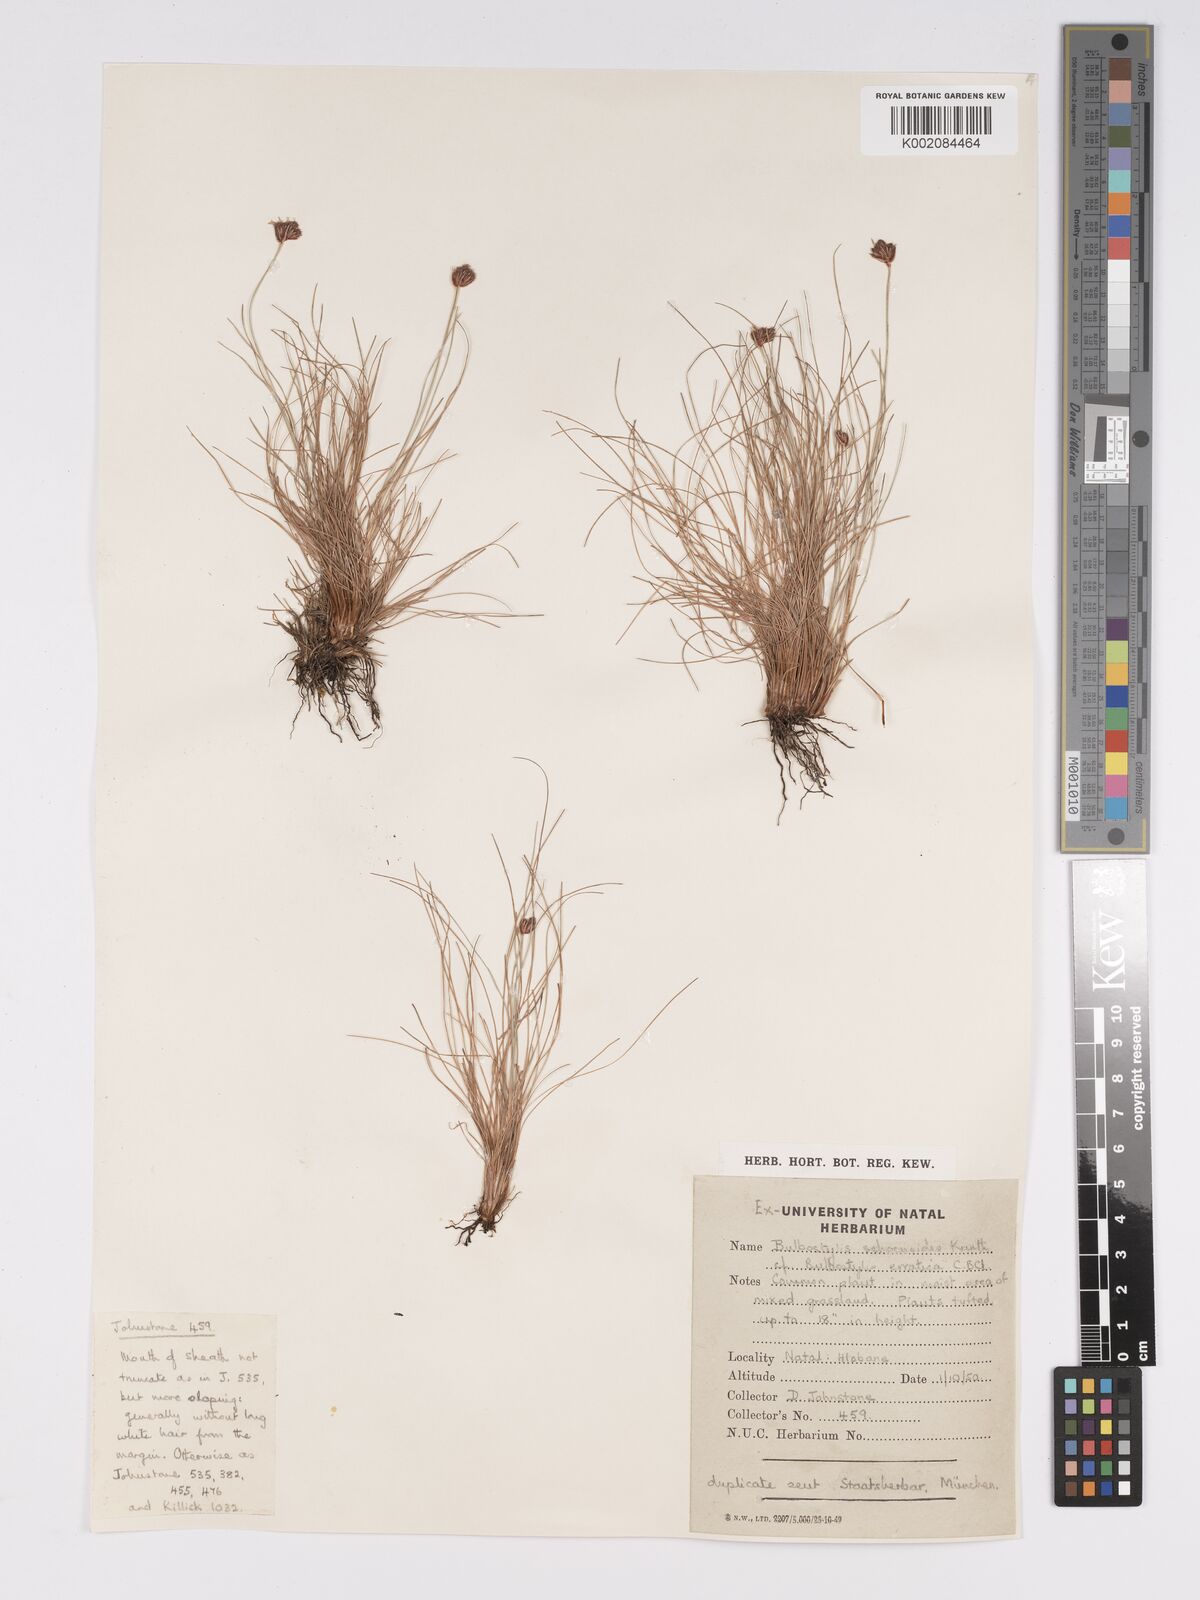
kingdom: Plantae
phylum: Tracheophyta
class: Liliopsida
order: Poales
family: Cyperaceae
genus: Bulbostylis
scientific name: Bulbostylis schoenoides
